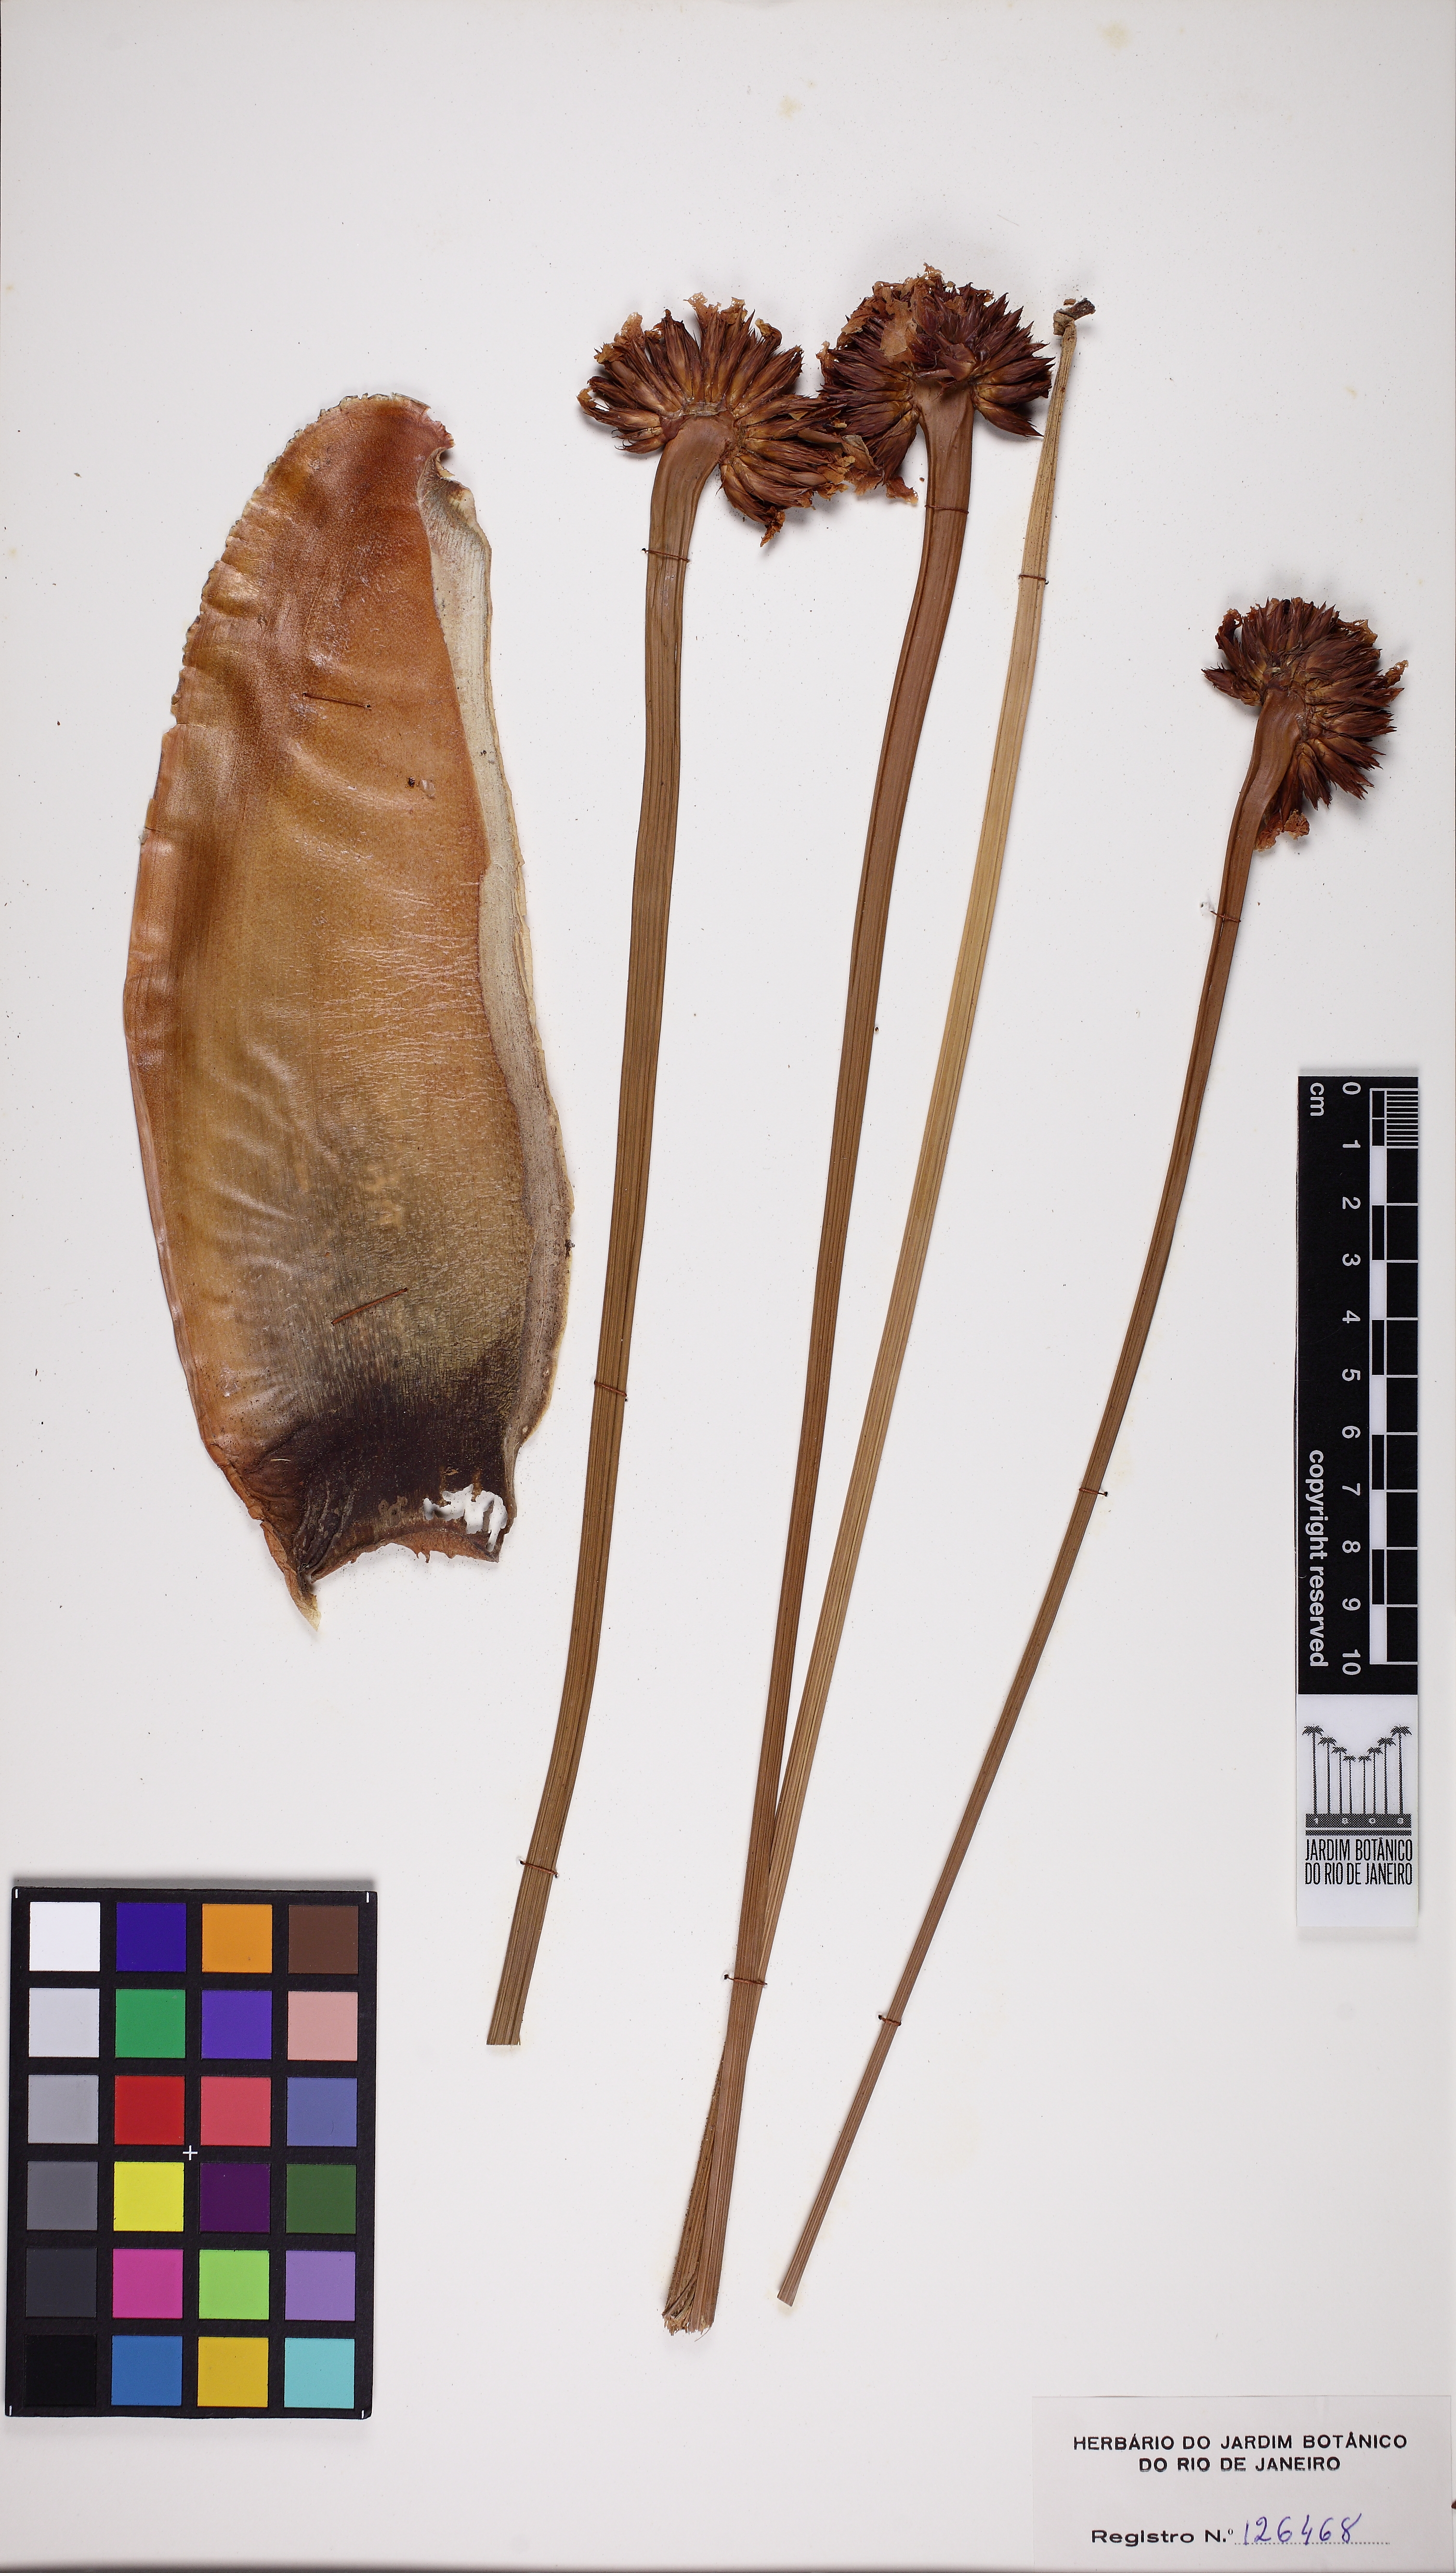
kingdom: Plantae
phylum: Tracheophyta
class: Liliopsida
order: Poales
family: Rapateaceae
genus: Stegolepis
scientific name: Stegolepis celiae
